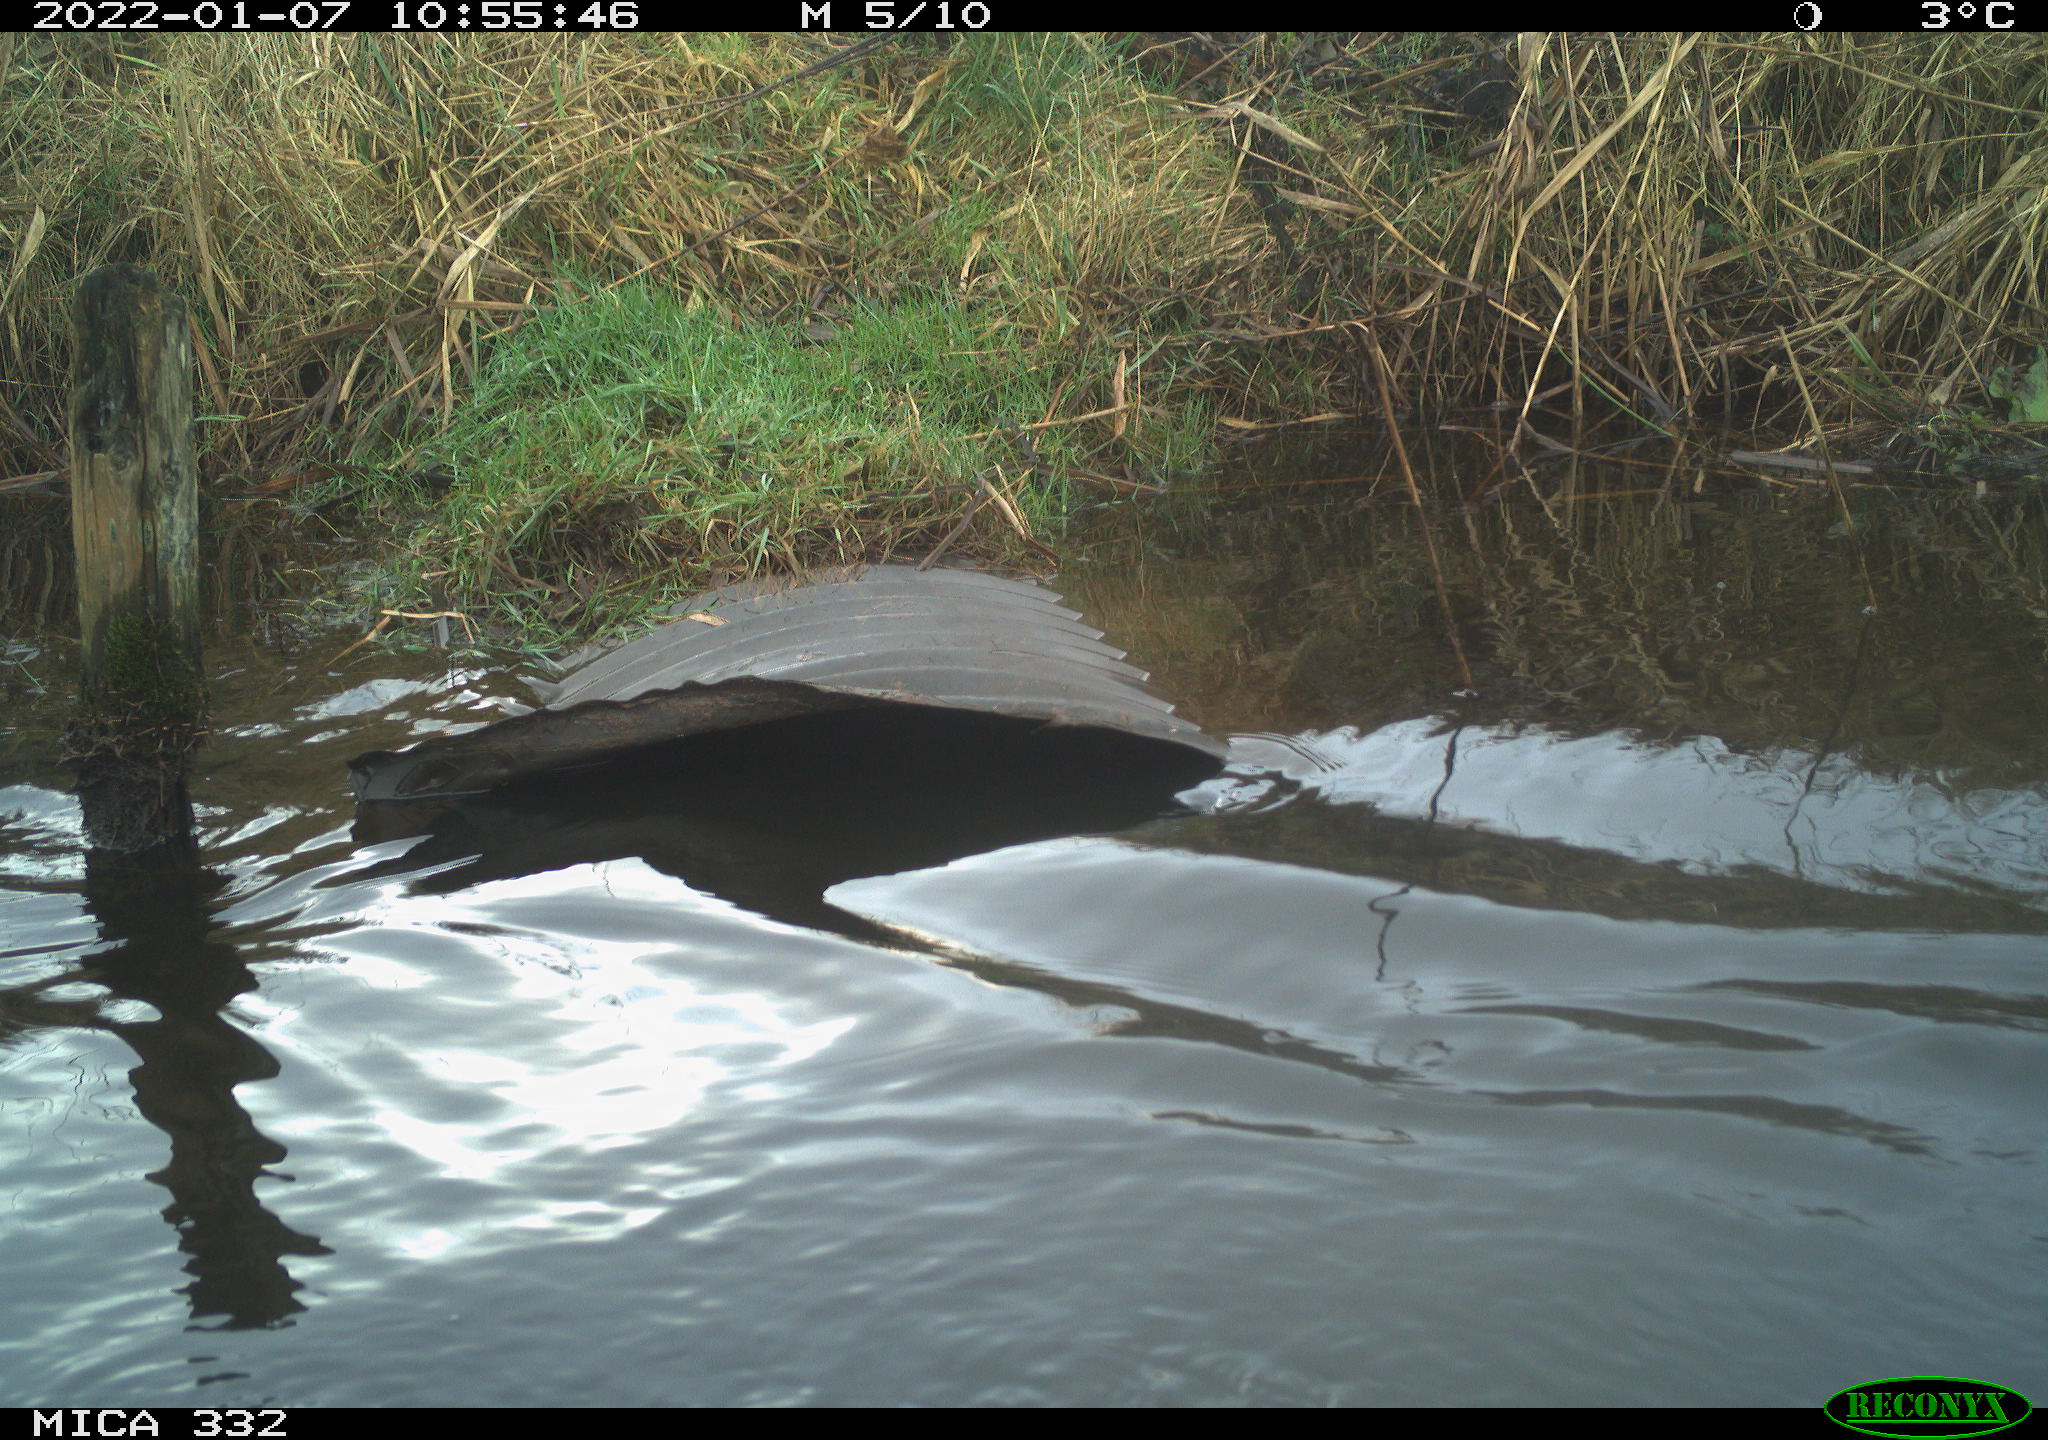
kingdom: Animalia
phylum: Chordata
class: Aves
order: Anseriformes
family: Anatidae
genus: Cygnus
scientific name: Cygnus olor
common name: Mute swan
